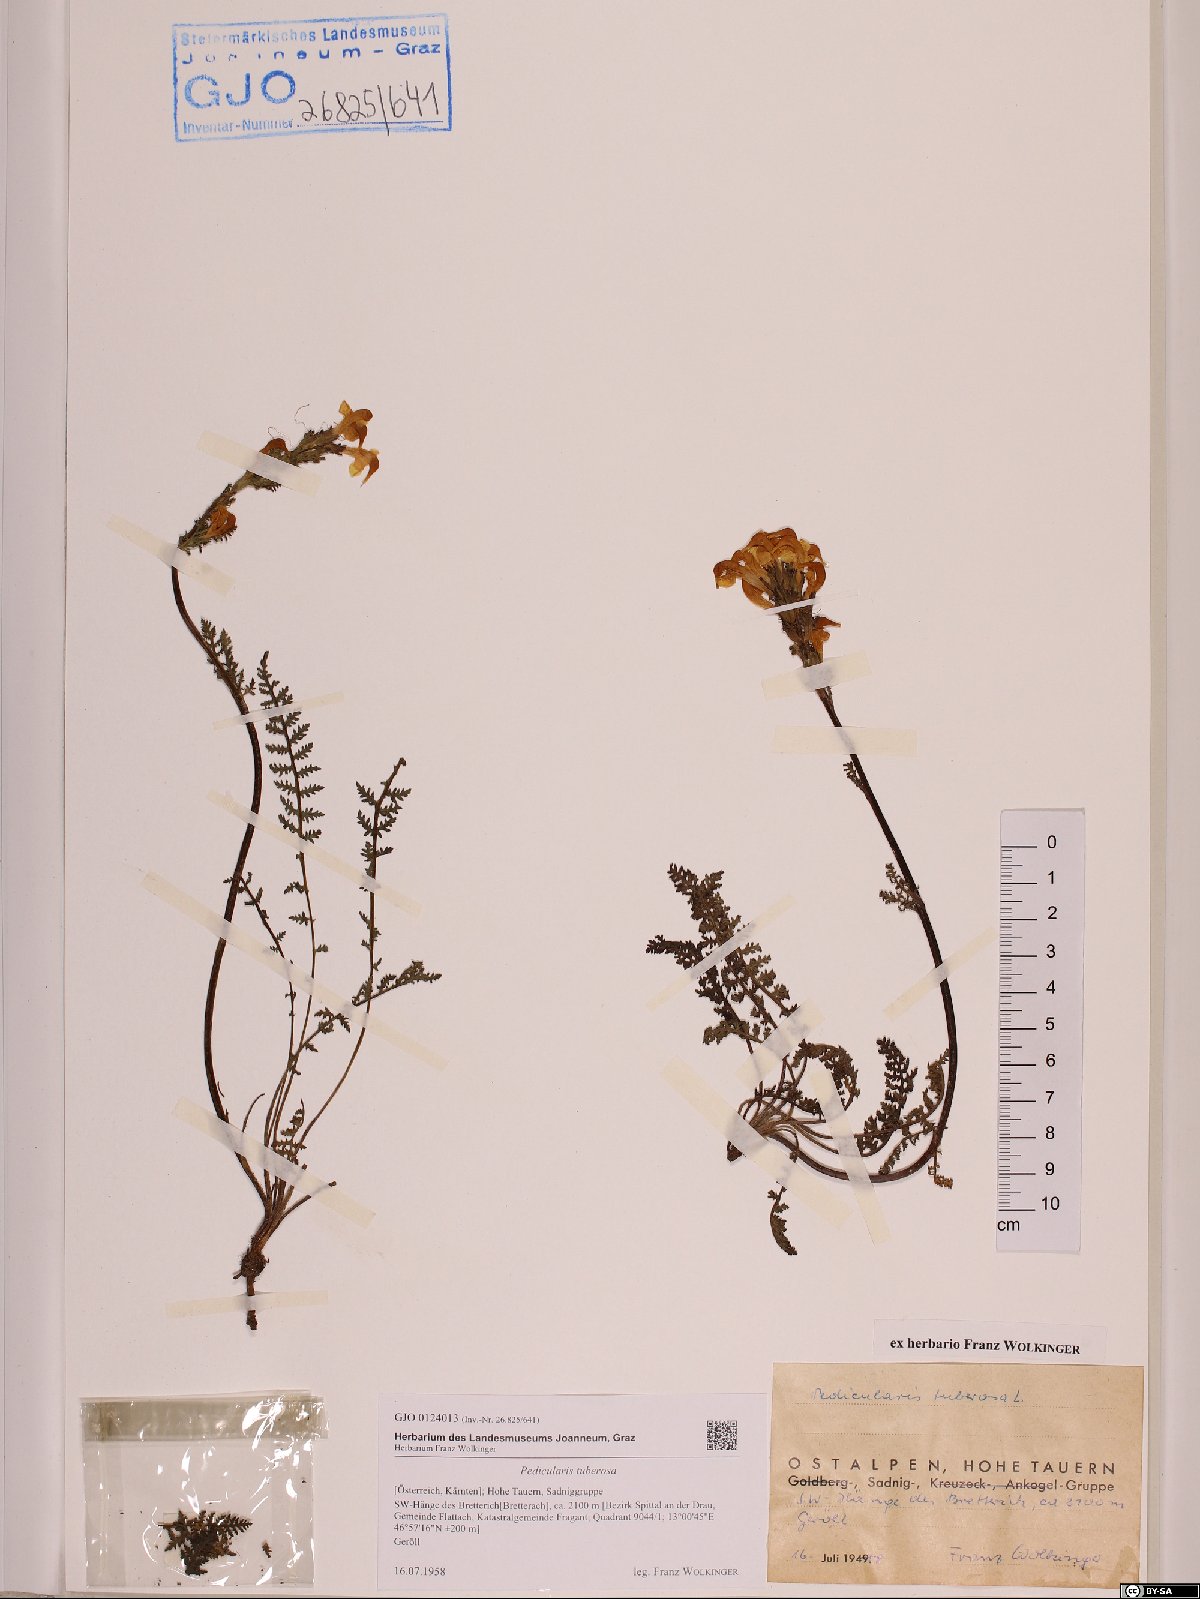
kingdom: Plantae
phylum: Tracheophyta
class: Magnoliopsida
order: Lamiales
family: Orobanchaceae
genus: Pedicularis
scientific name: Pedicularis tuberosa
